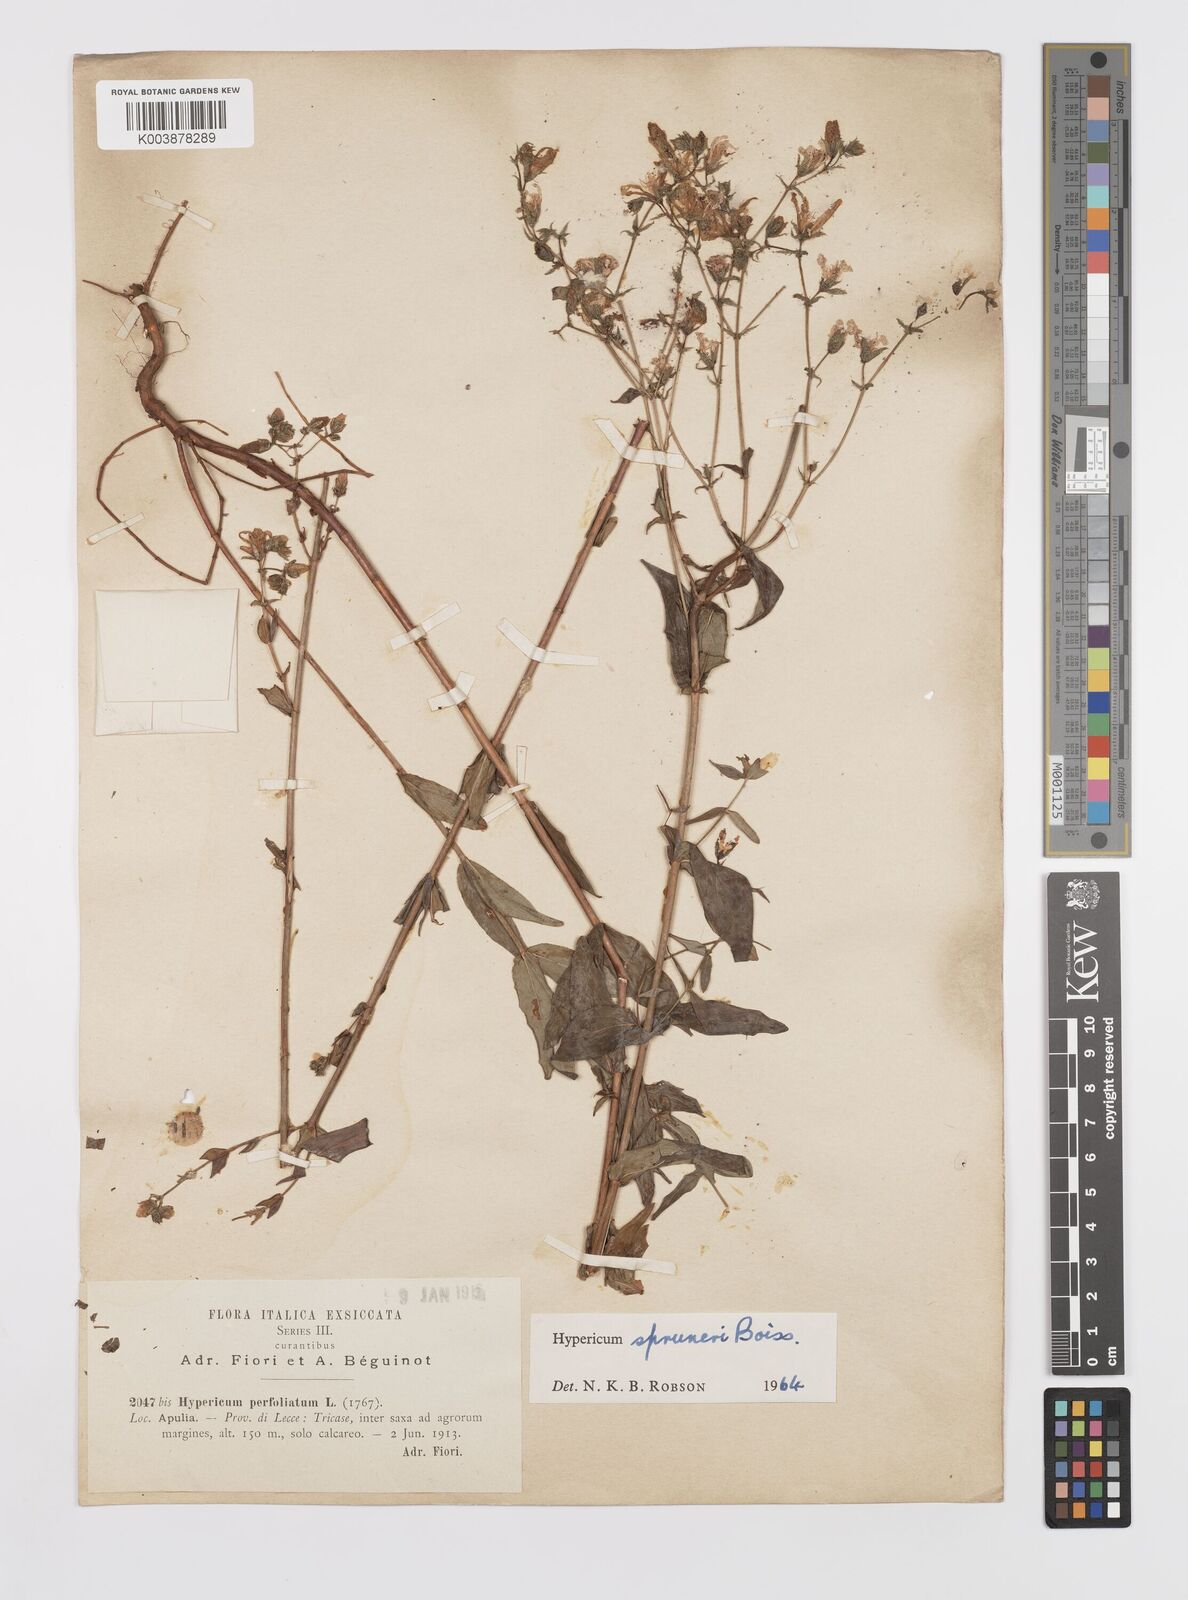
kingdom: Plantae
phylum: Tracheophyta
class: Magnoliopsida
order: Malpighiales
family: Hypericaceae
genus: Hypericum
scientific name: Hypericum spruneri
